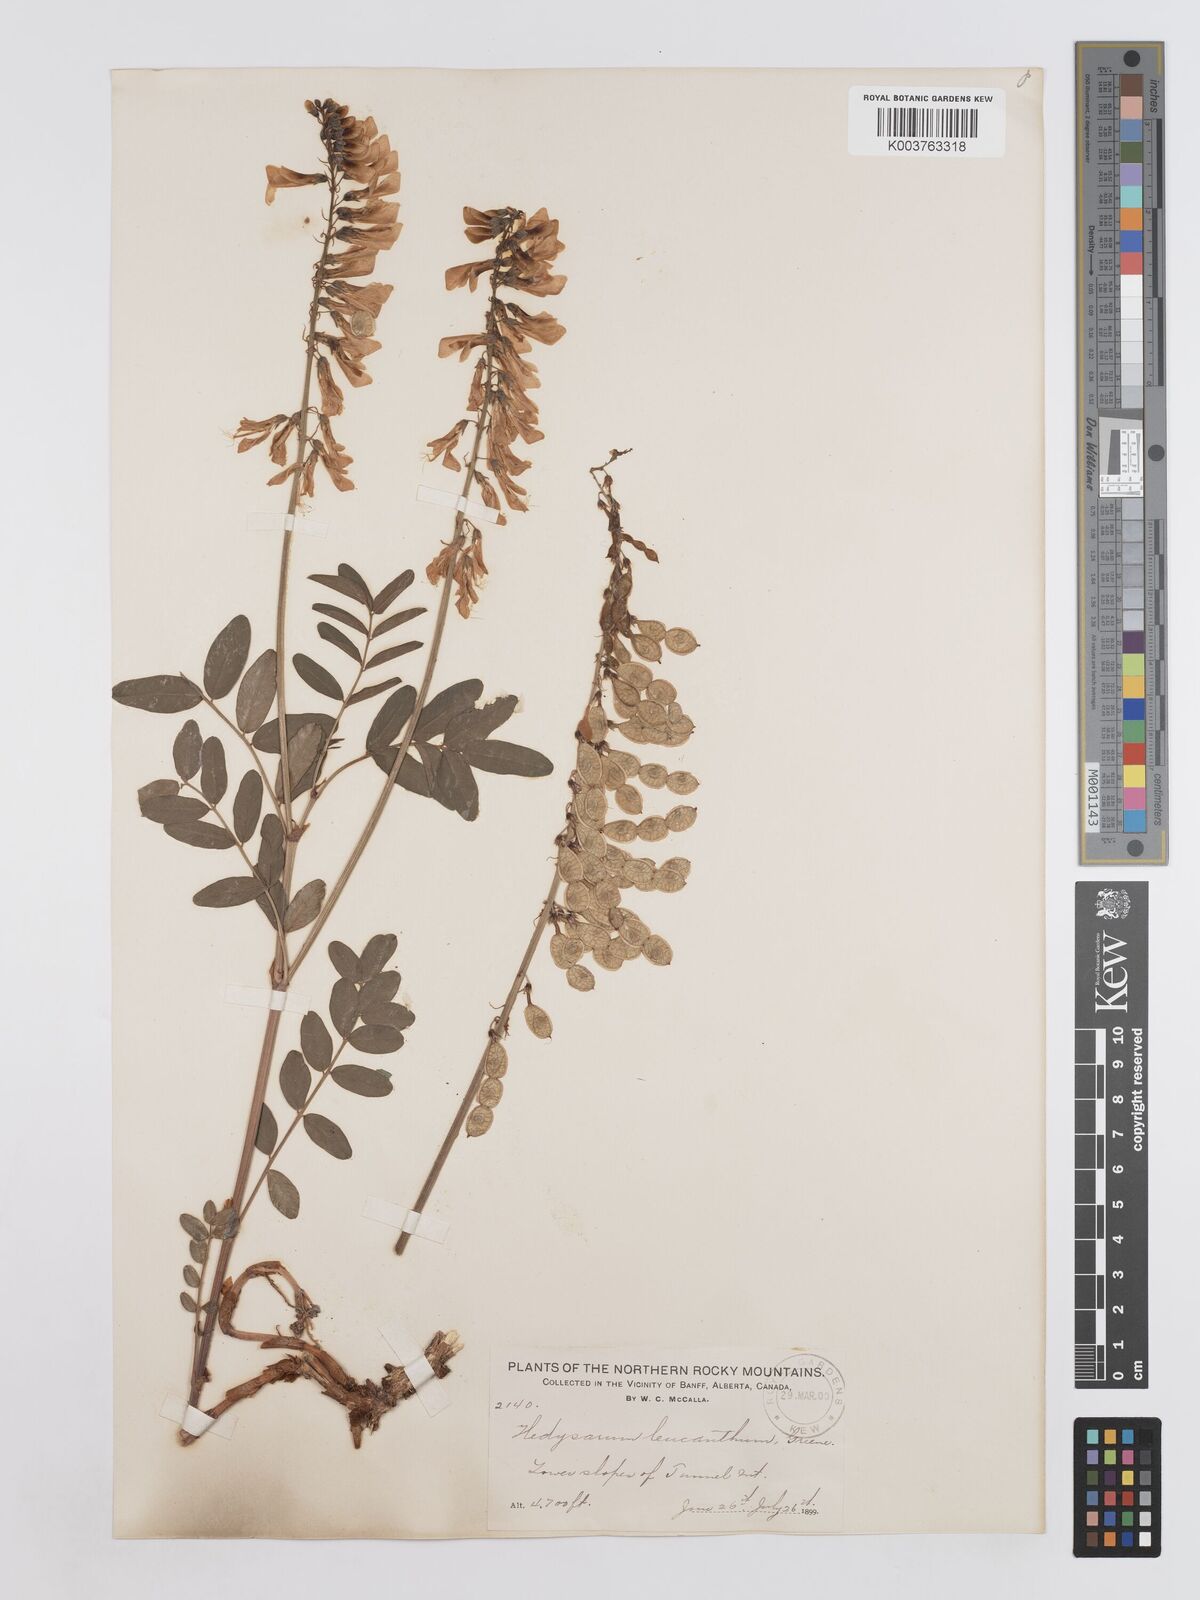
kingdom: Plantae
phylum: Tracheophyta
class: Magnoliopsida
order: Fabales
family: Fabaceae
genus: Hedysarum
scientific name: Hedysarum sulphurescens
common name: Sulphur hedysarum
